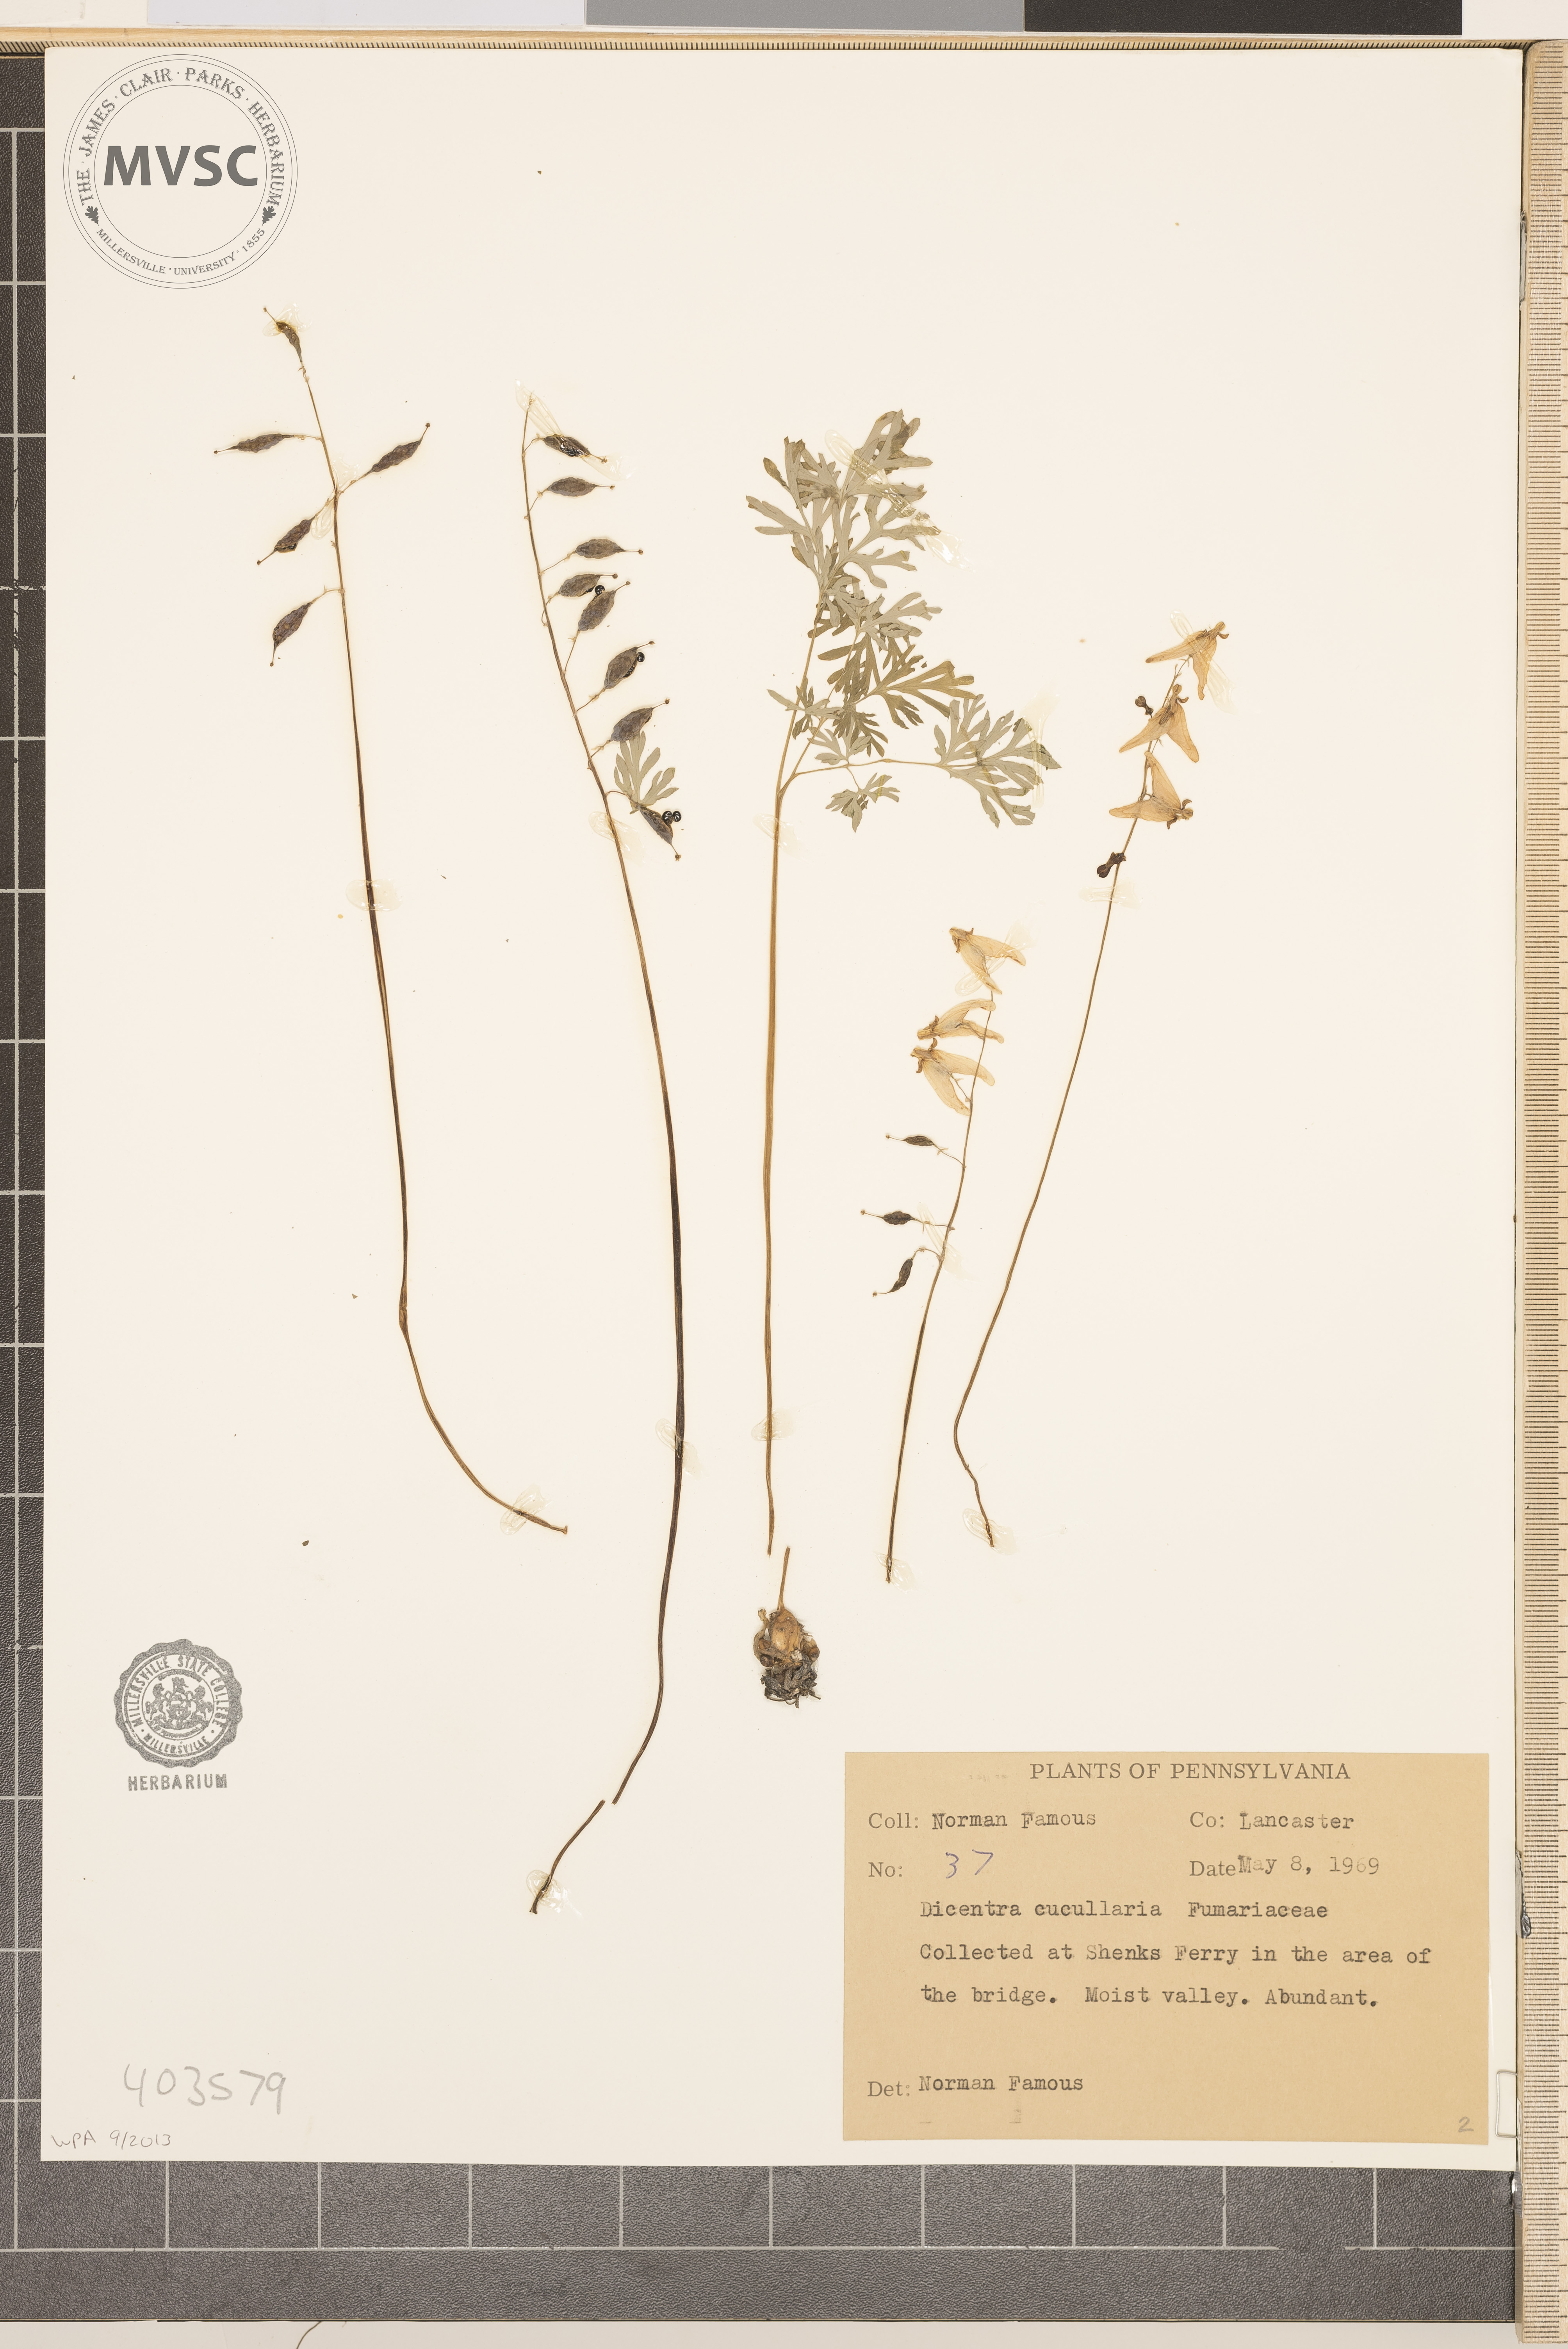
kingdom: Plantae
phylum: Tracheophyta
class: Magnoliopsida
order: Ranunculales
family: Papaveraceae
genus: Dicentra
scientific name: Dicentra cucullaria
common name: Dutchman's Breeches
